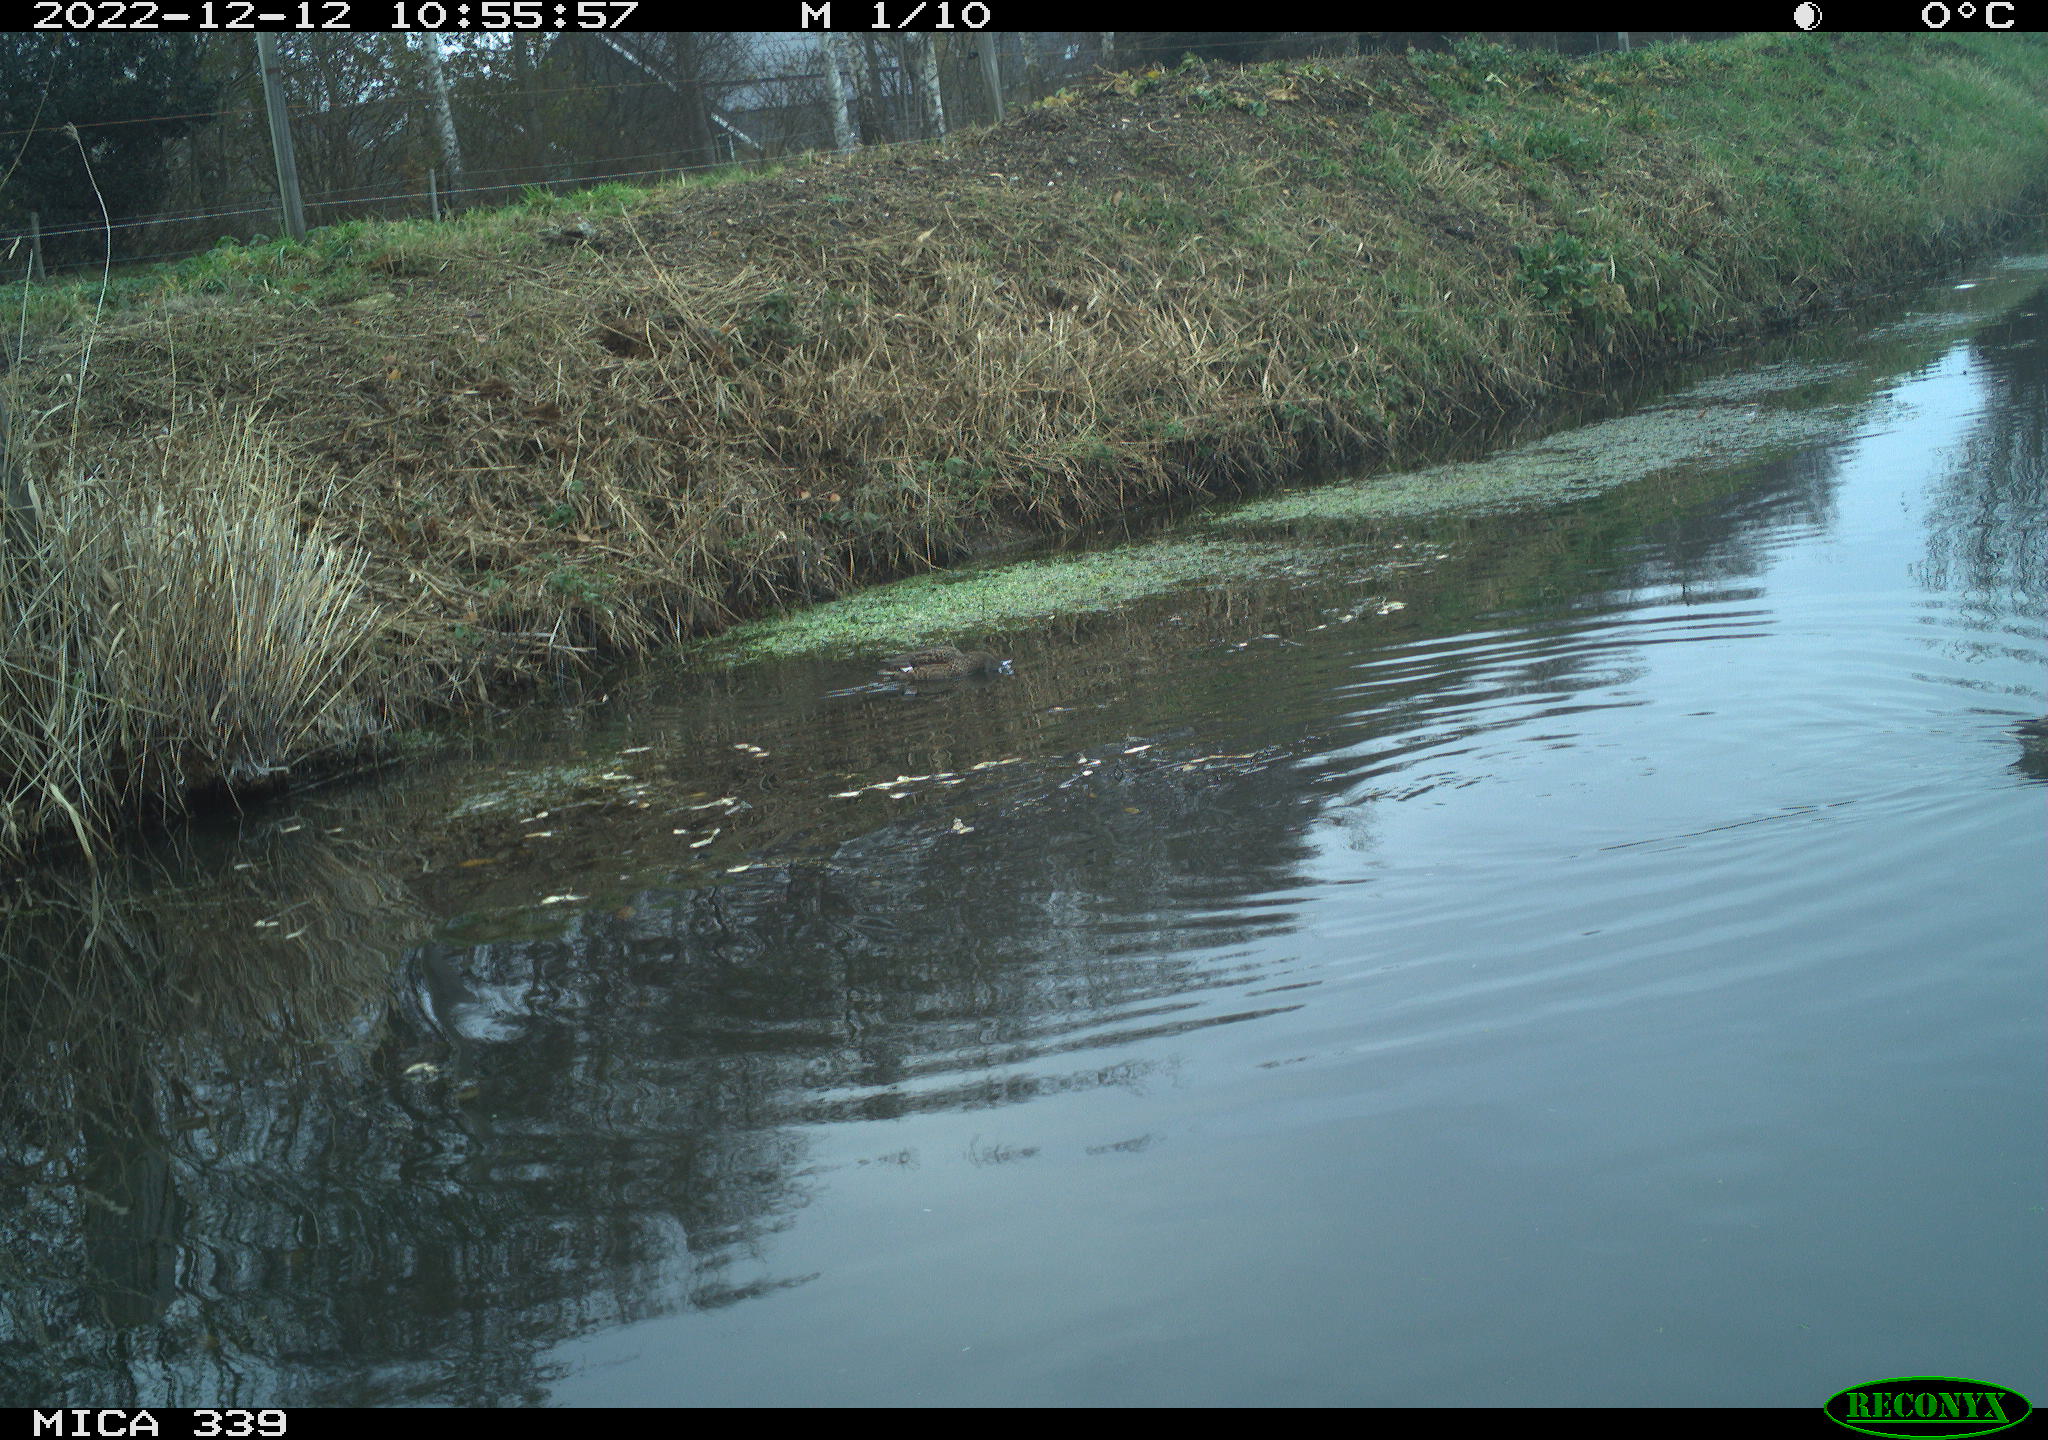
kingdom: Animalia
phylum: Chordata
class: Aves
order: Anseriformes
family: Anatidae
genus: Anas
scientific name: Anas
